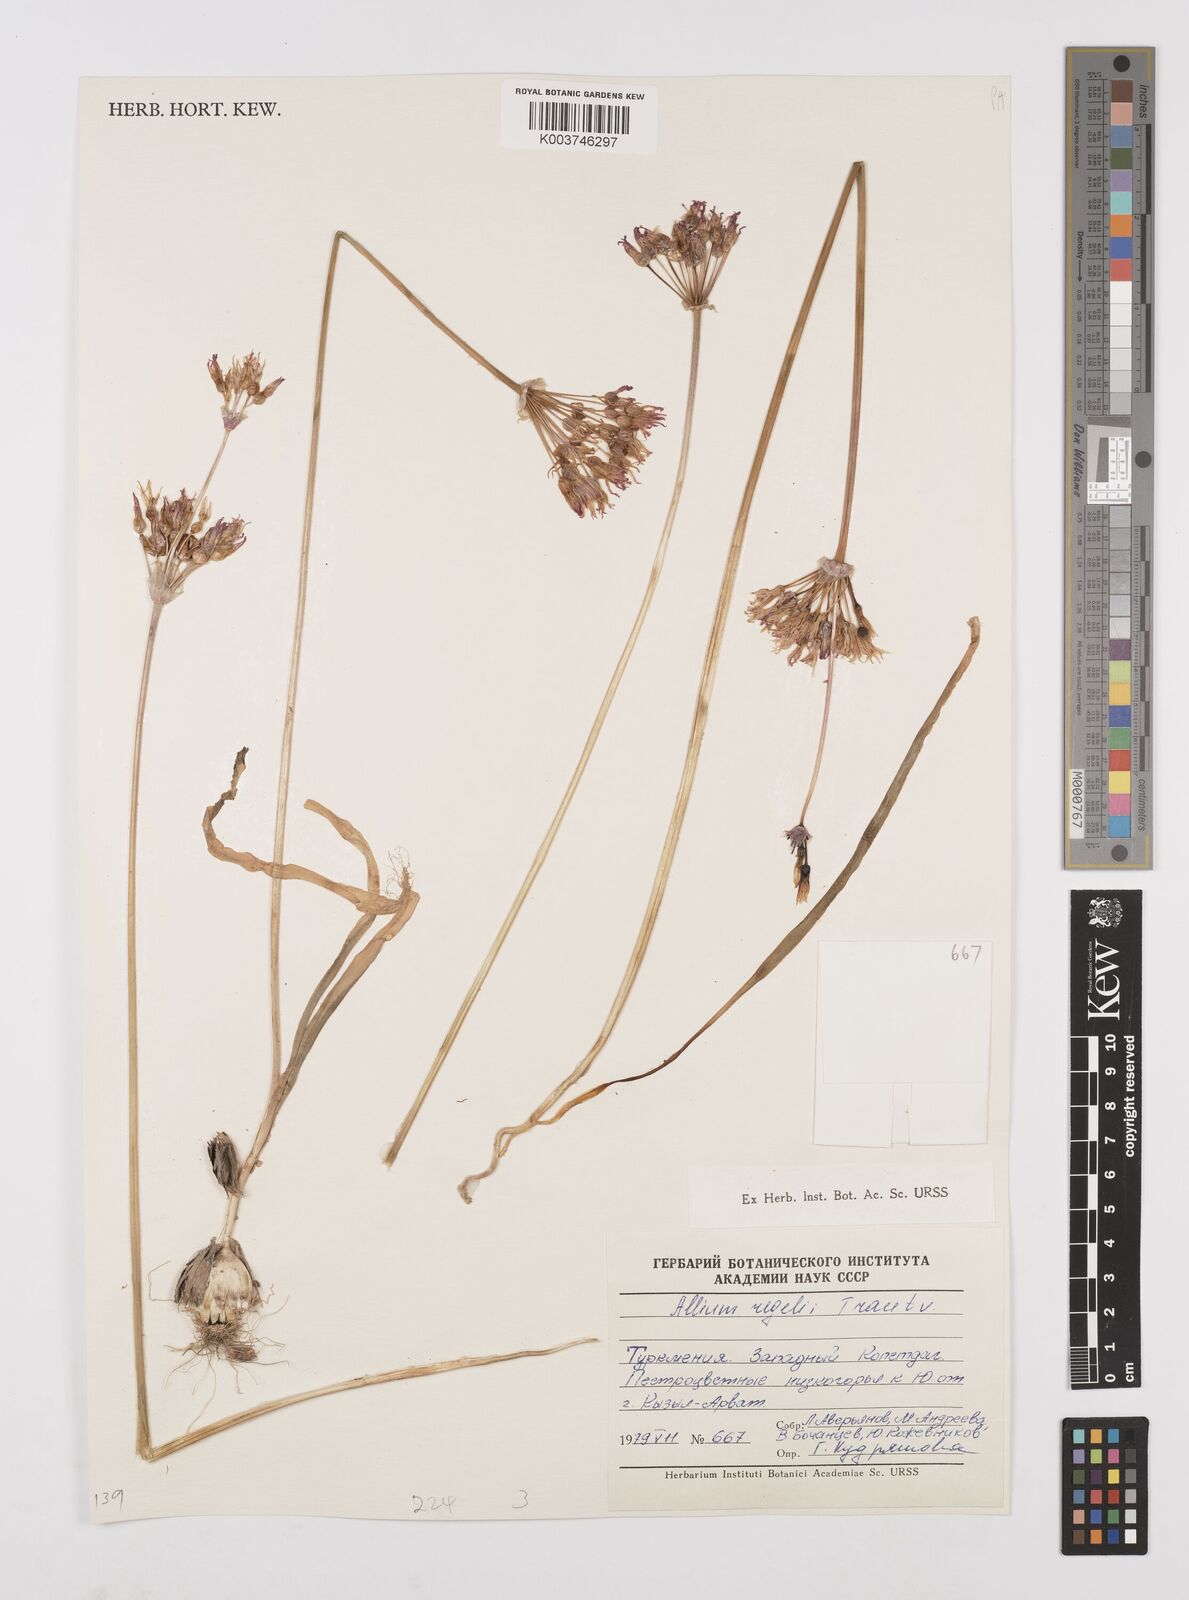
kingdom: Plantae
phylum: Tracheophyta
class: Liliopsida
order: Asparagales
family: Amaryllidaceae
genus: Allium
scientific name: Allium regelii
